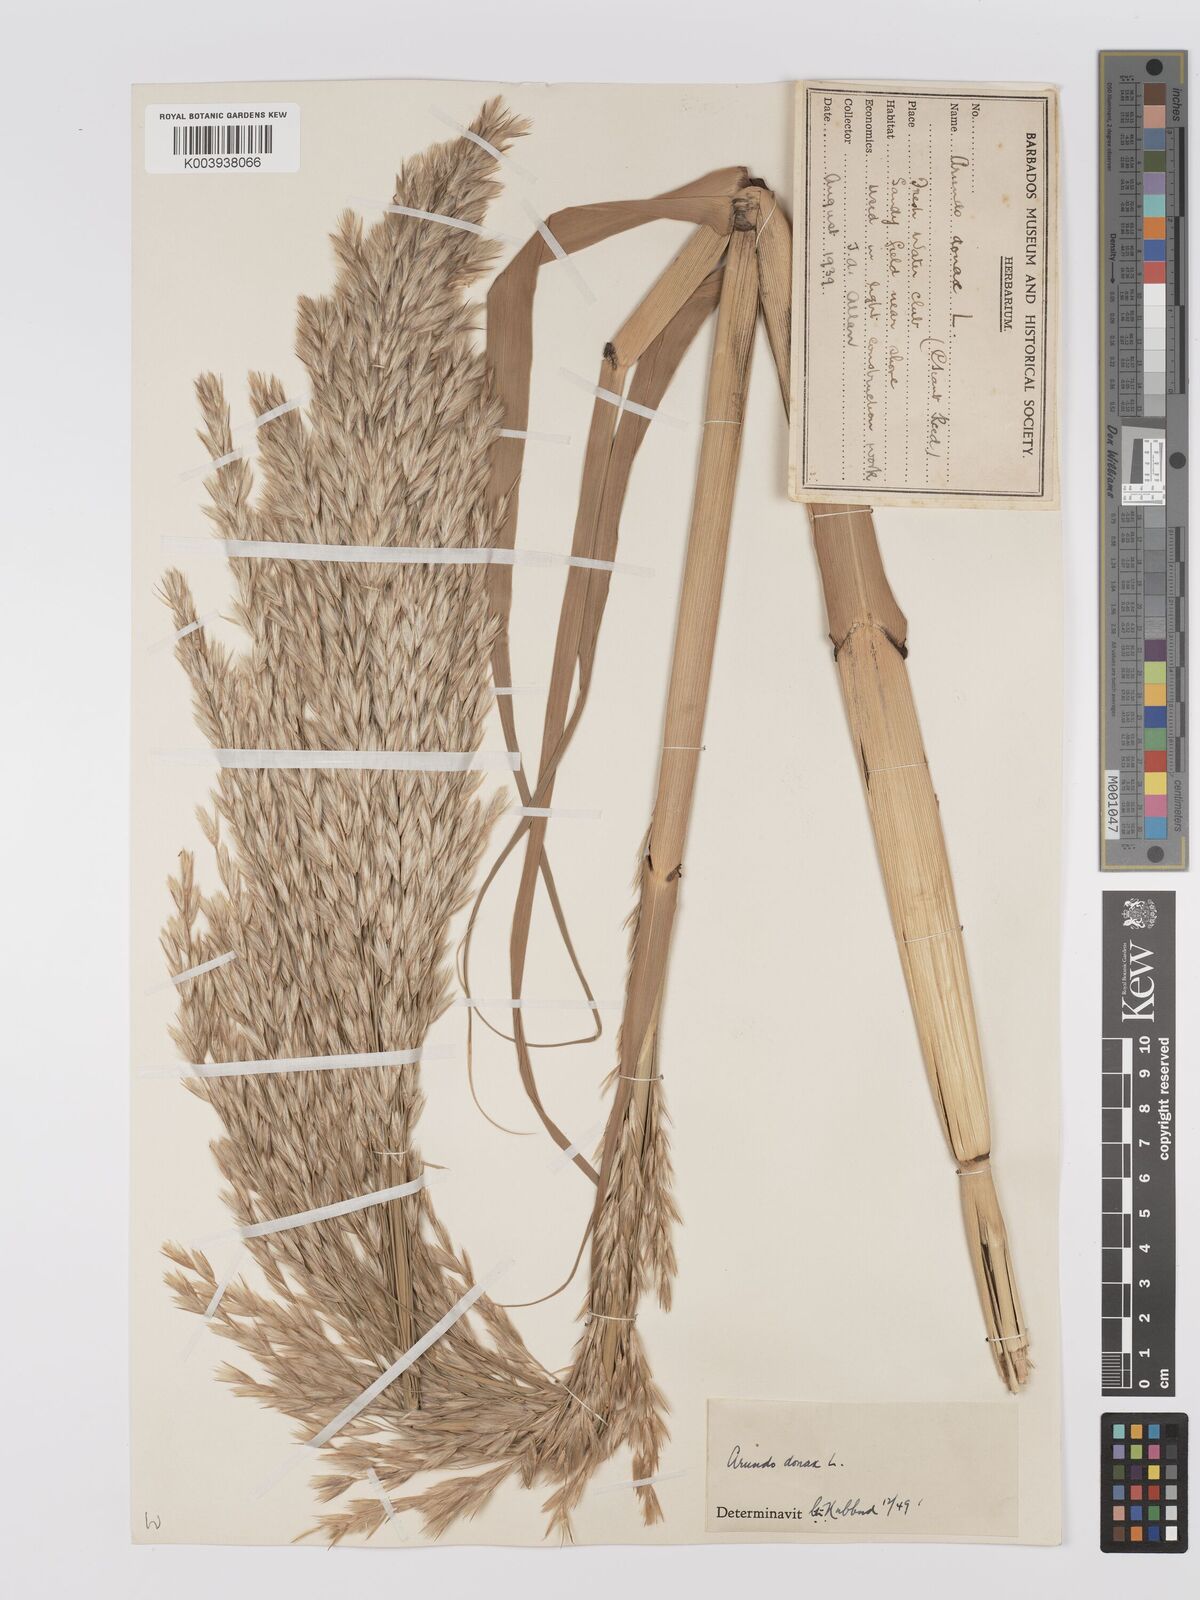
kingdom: Plantae
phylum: Tracheophyta
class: Liliopsida
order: Poales
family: Poaceae
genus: Arundo
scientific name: Arundo donax
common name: Giant reed
